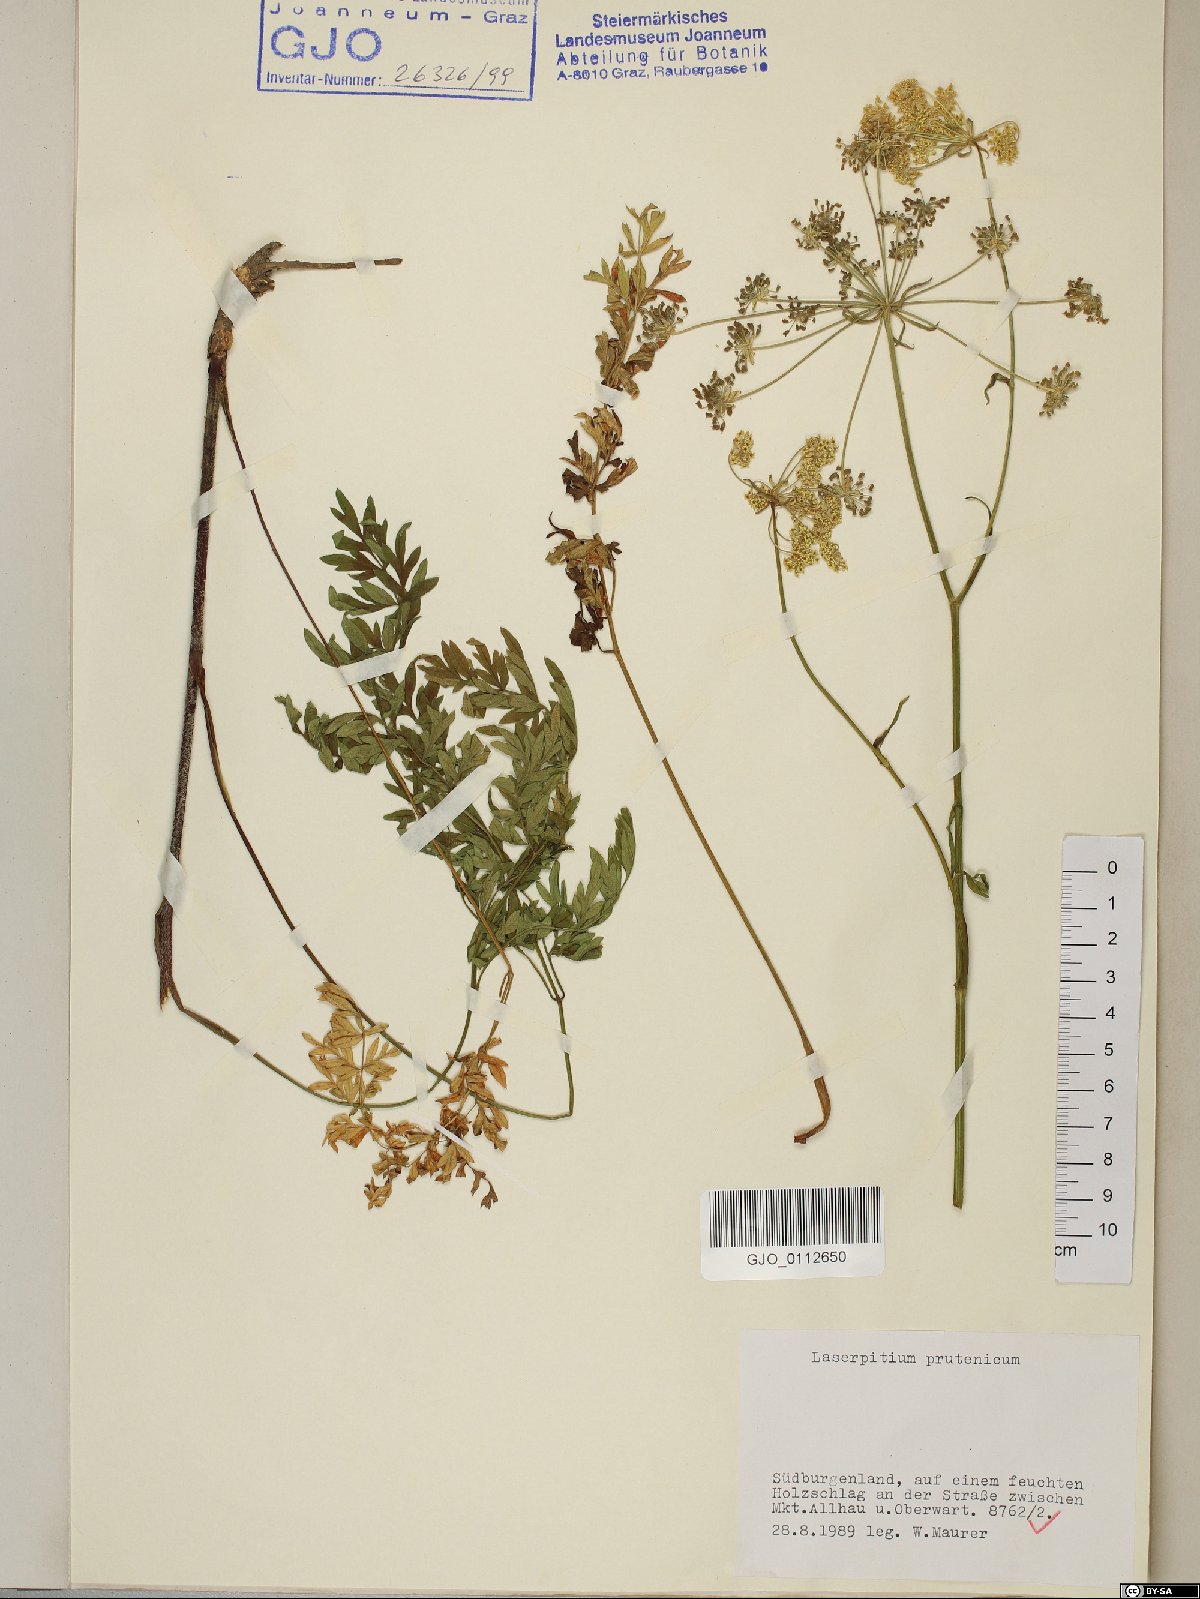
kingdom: Plantae
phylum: Tracheophyta
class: Magnoliopsida
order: Apiales
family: Apiaceae
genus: Silphiodaucus
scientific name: Silphiodaucus prutenicus
